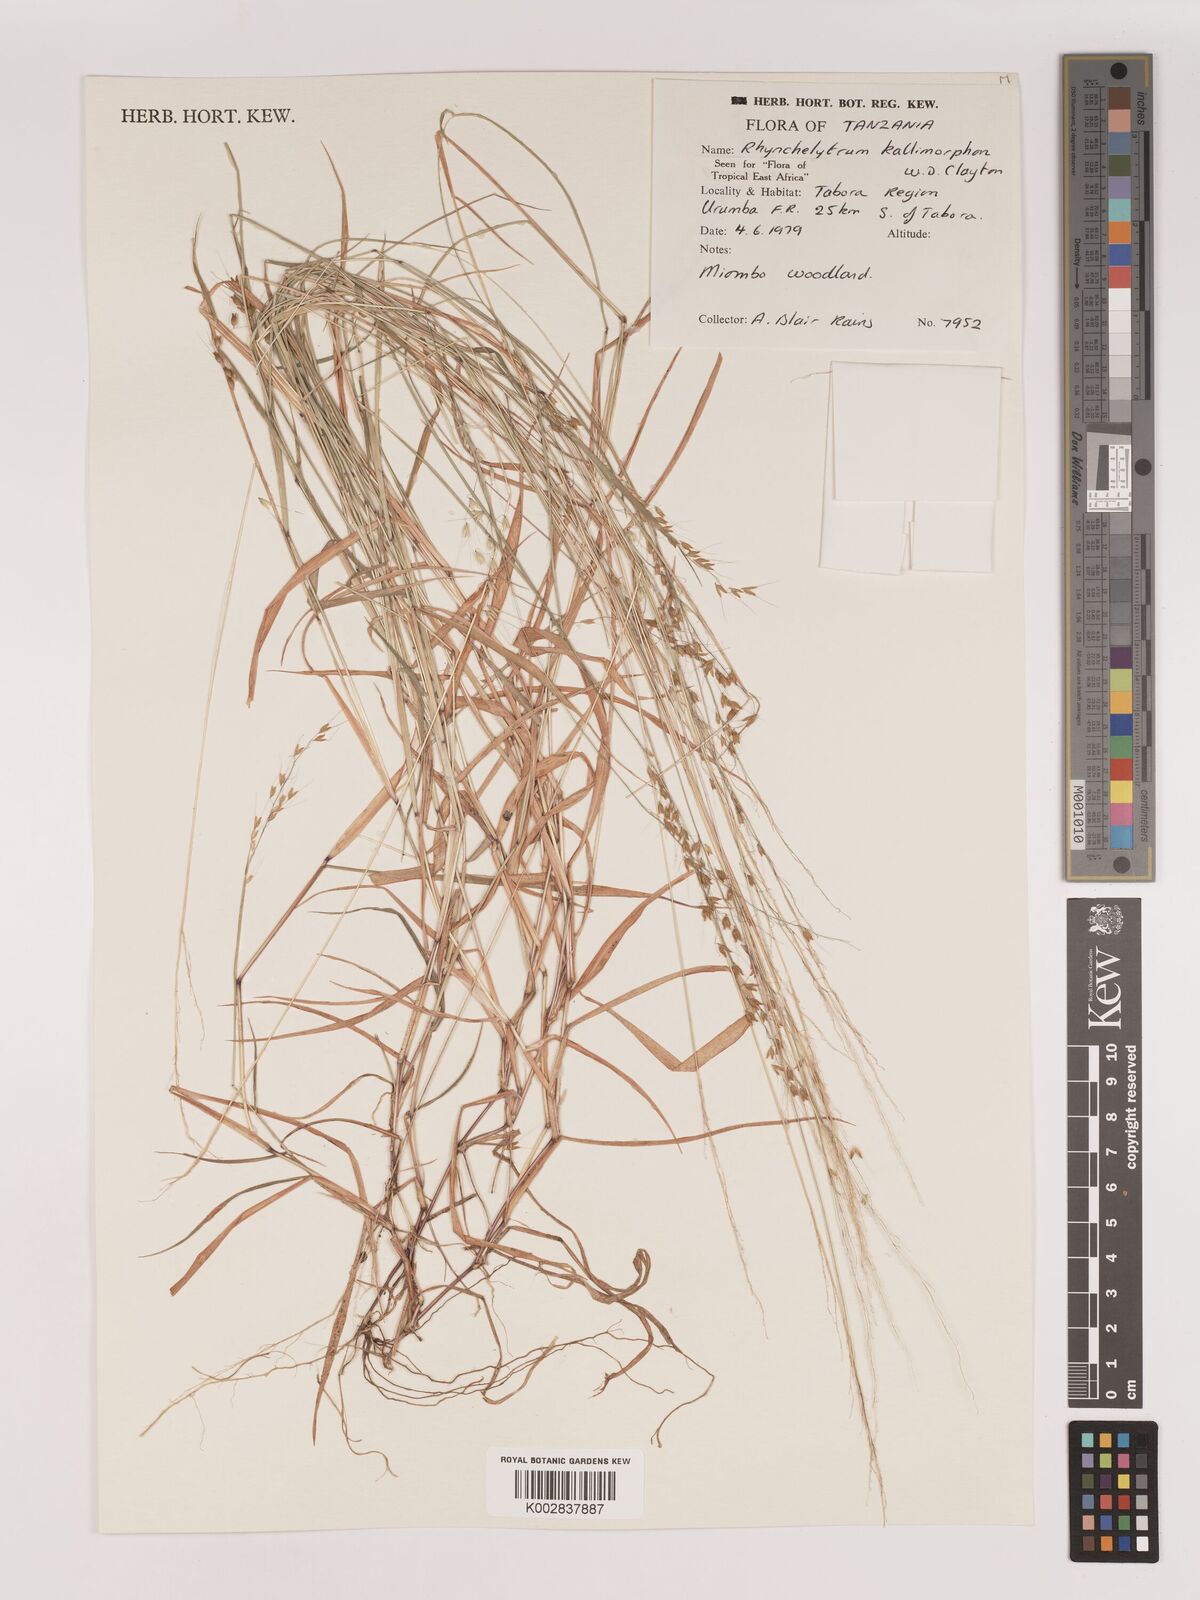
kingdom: Plantae
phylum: Tracheophyta
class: Liliopsida
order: Poales
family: Poaceae
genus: Melinis
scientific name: Melinis kallimorpha
